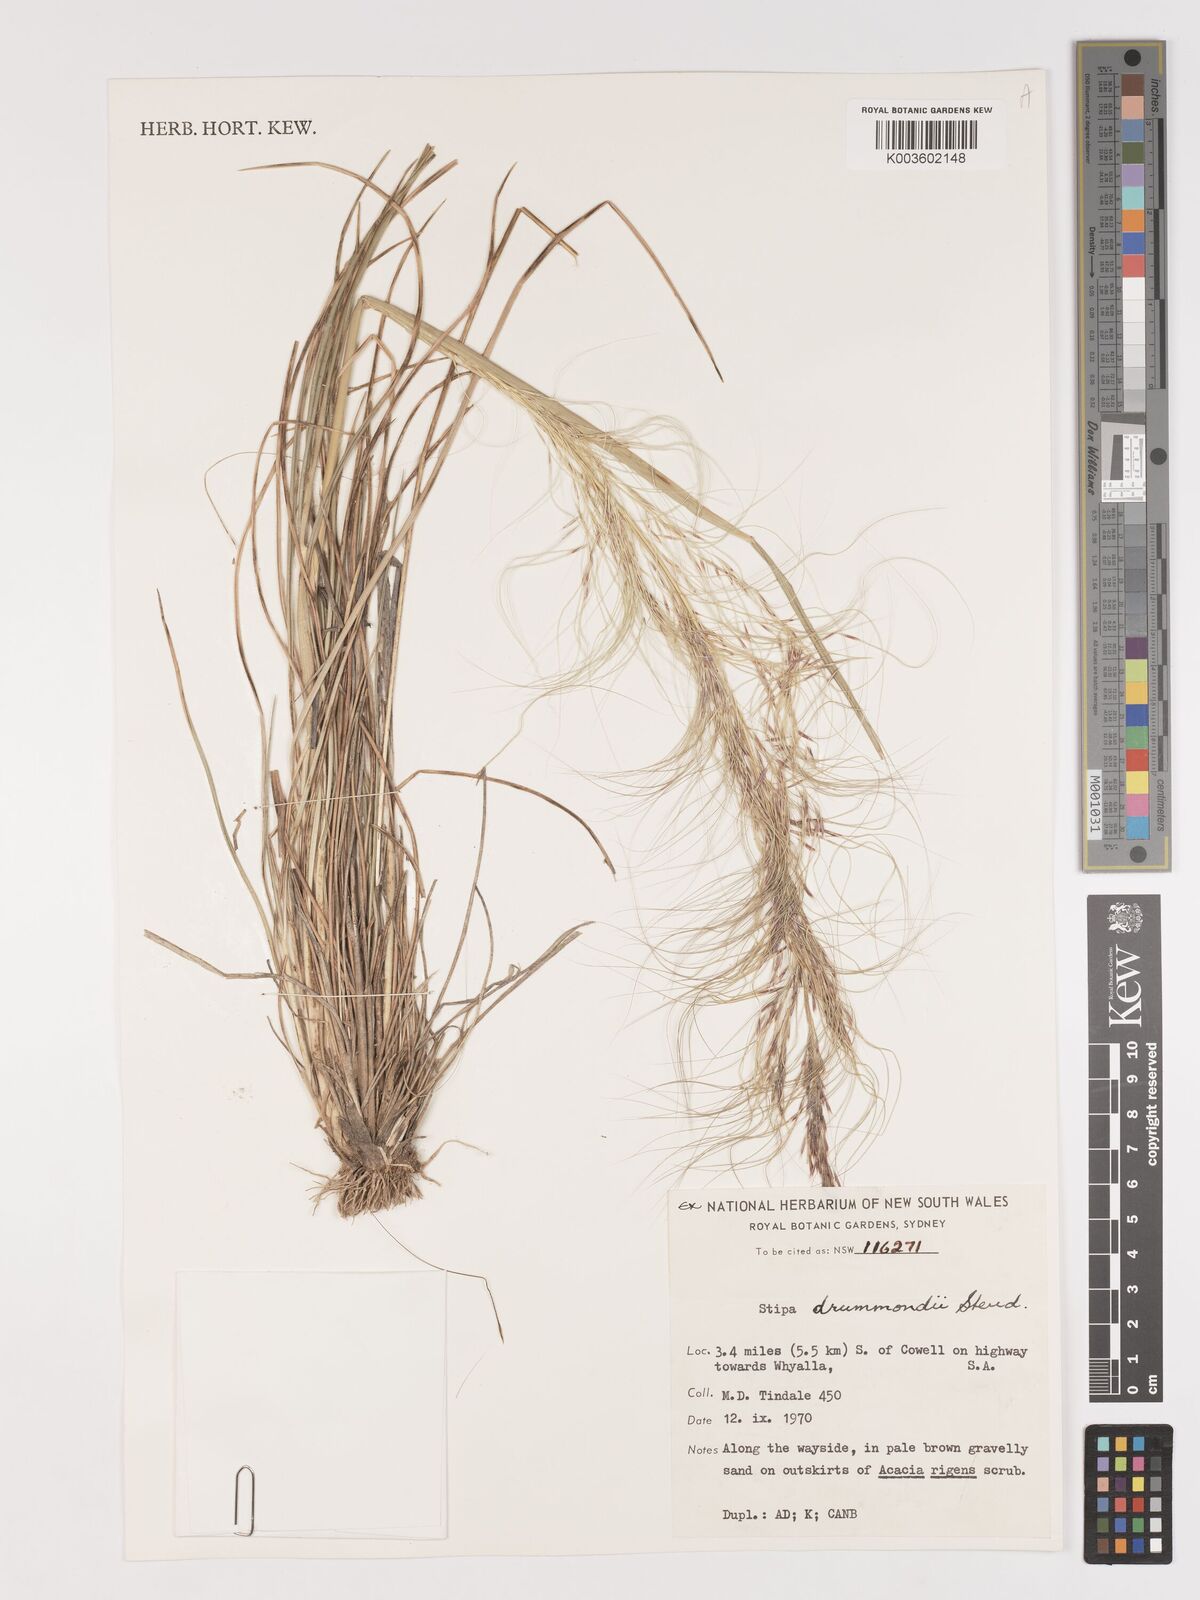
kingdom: Plantae
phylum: Tracheophyta
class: Liliopsida
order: Poales
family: Poaceae
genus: Austrostipa
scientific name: Austrostipa drummondii
